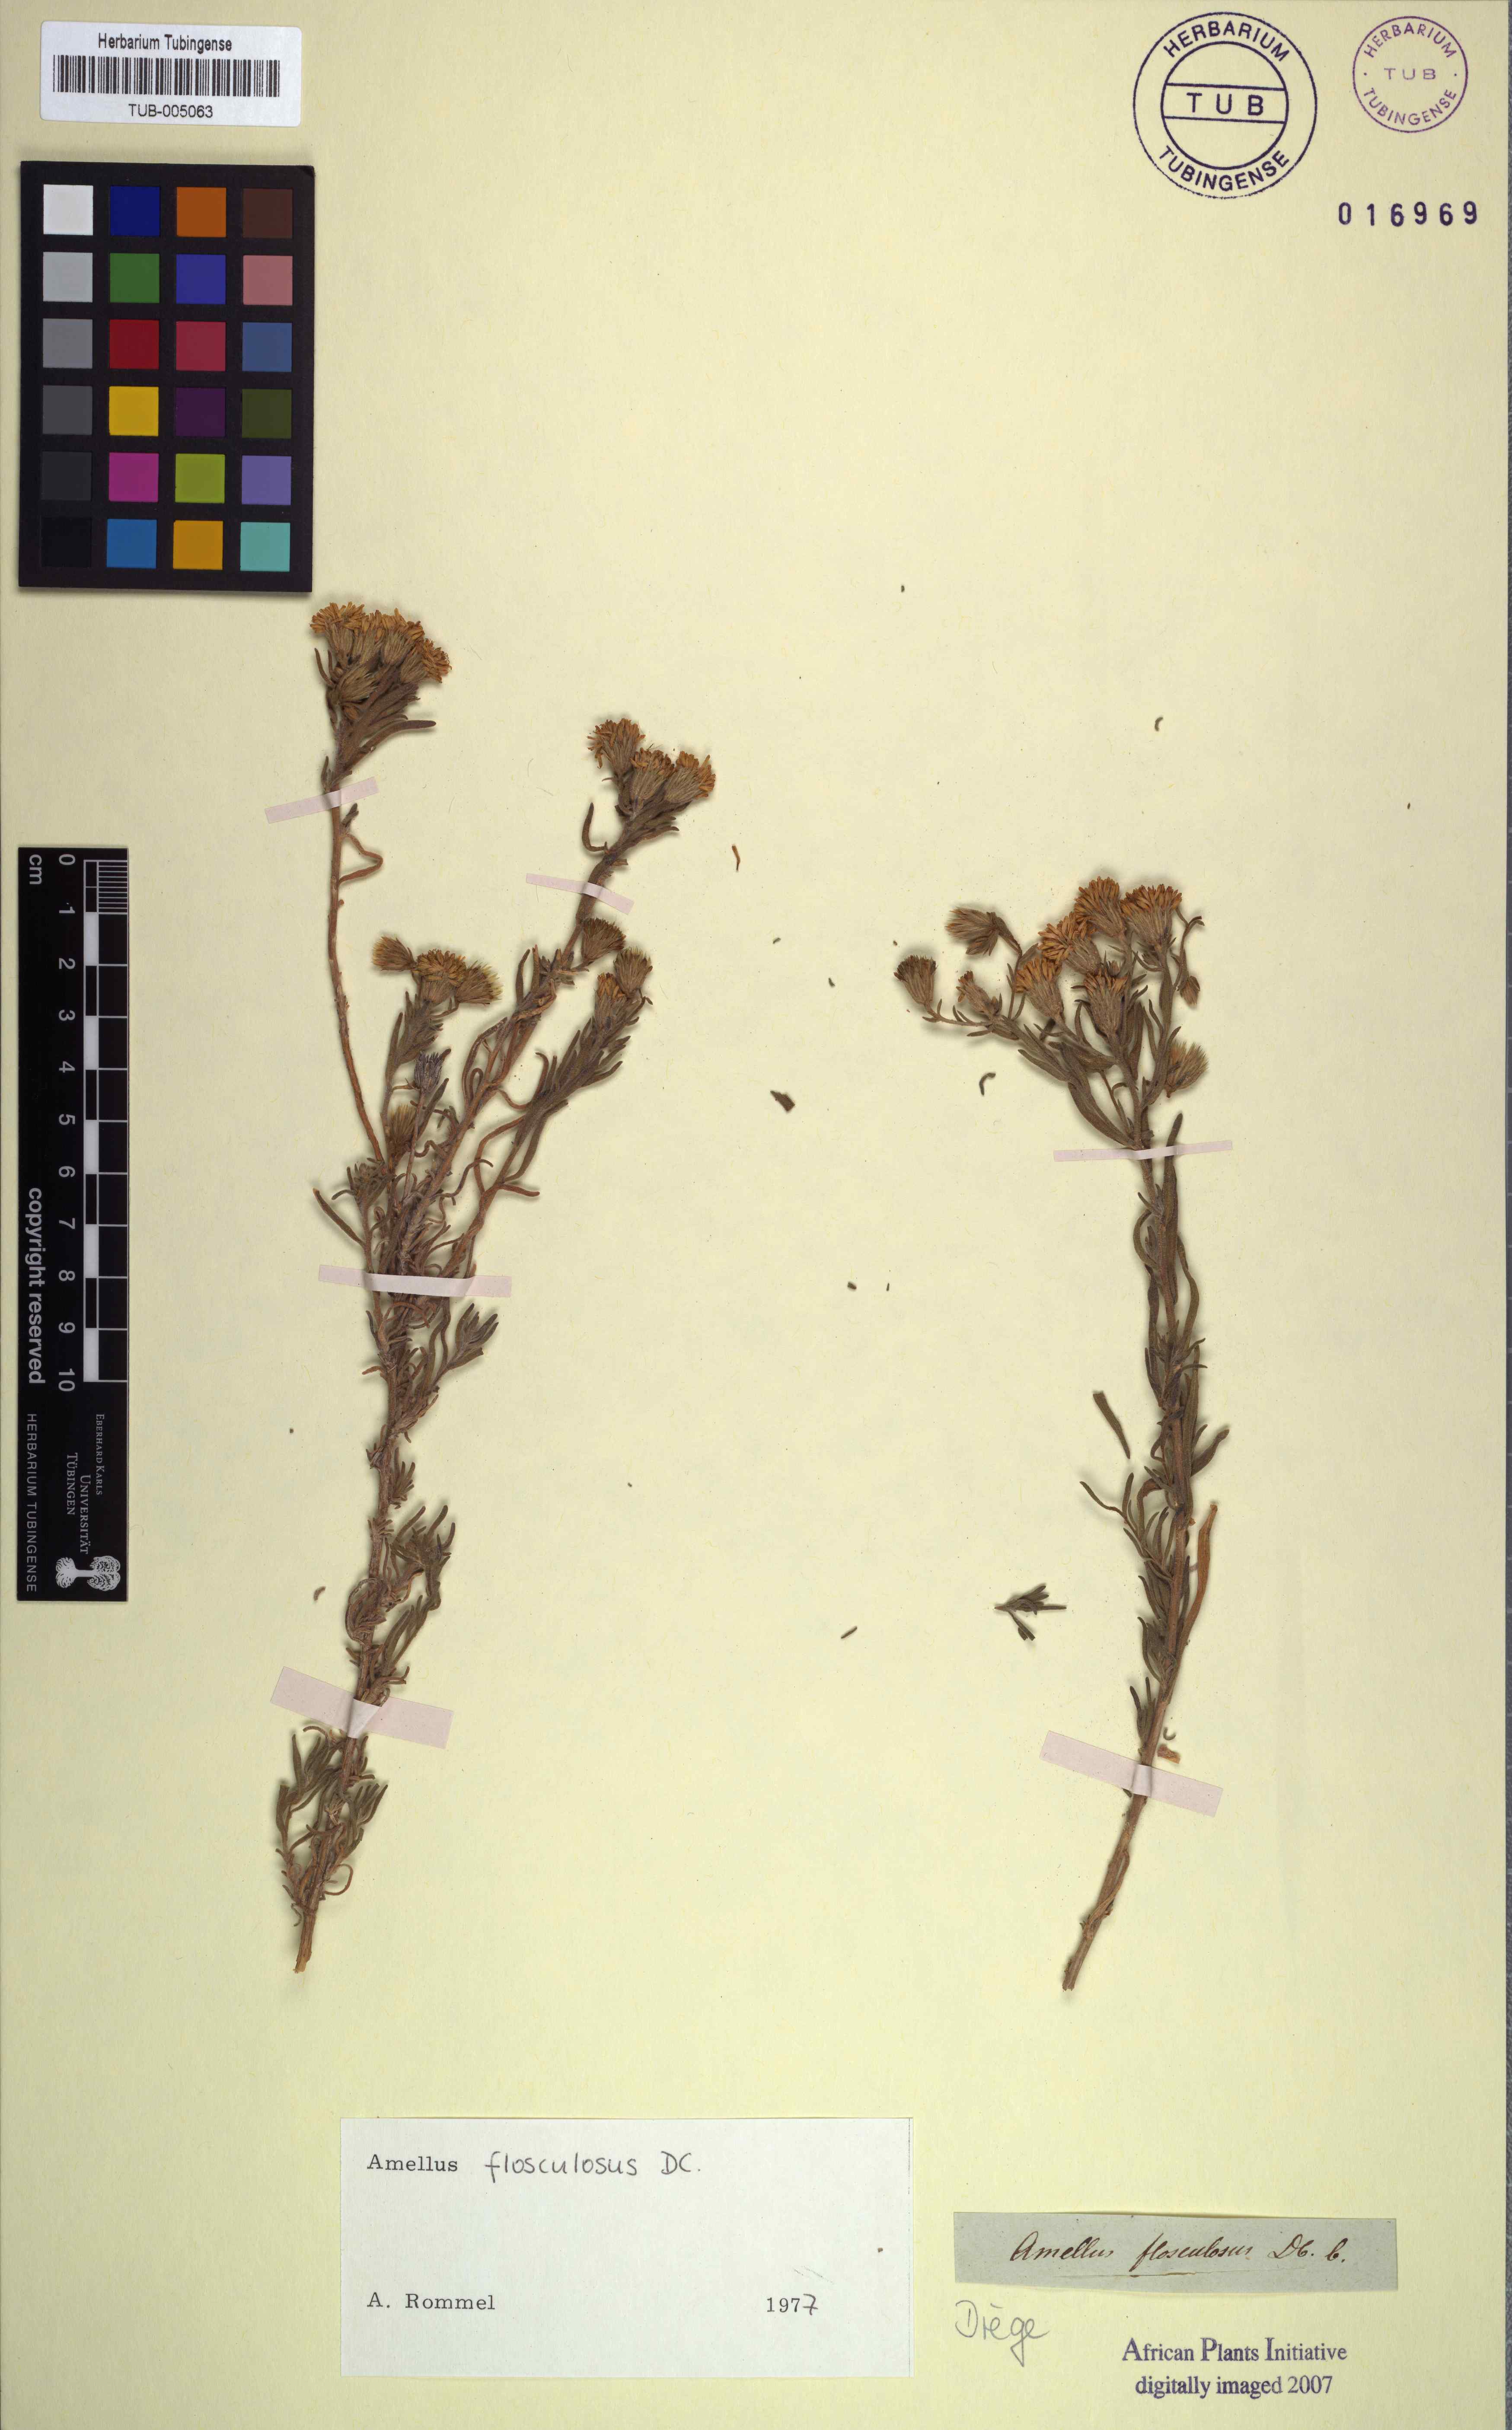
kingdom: Plantae
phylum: Tracheophyta
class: Magnoliopsida
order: Asterales
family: Asteraceae
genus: Amellus
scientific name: Amellus flosculosus
